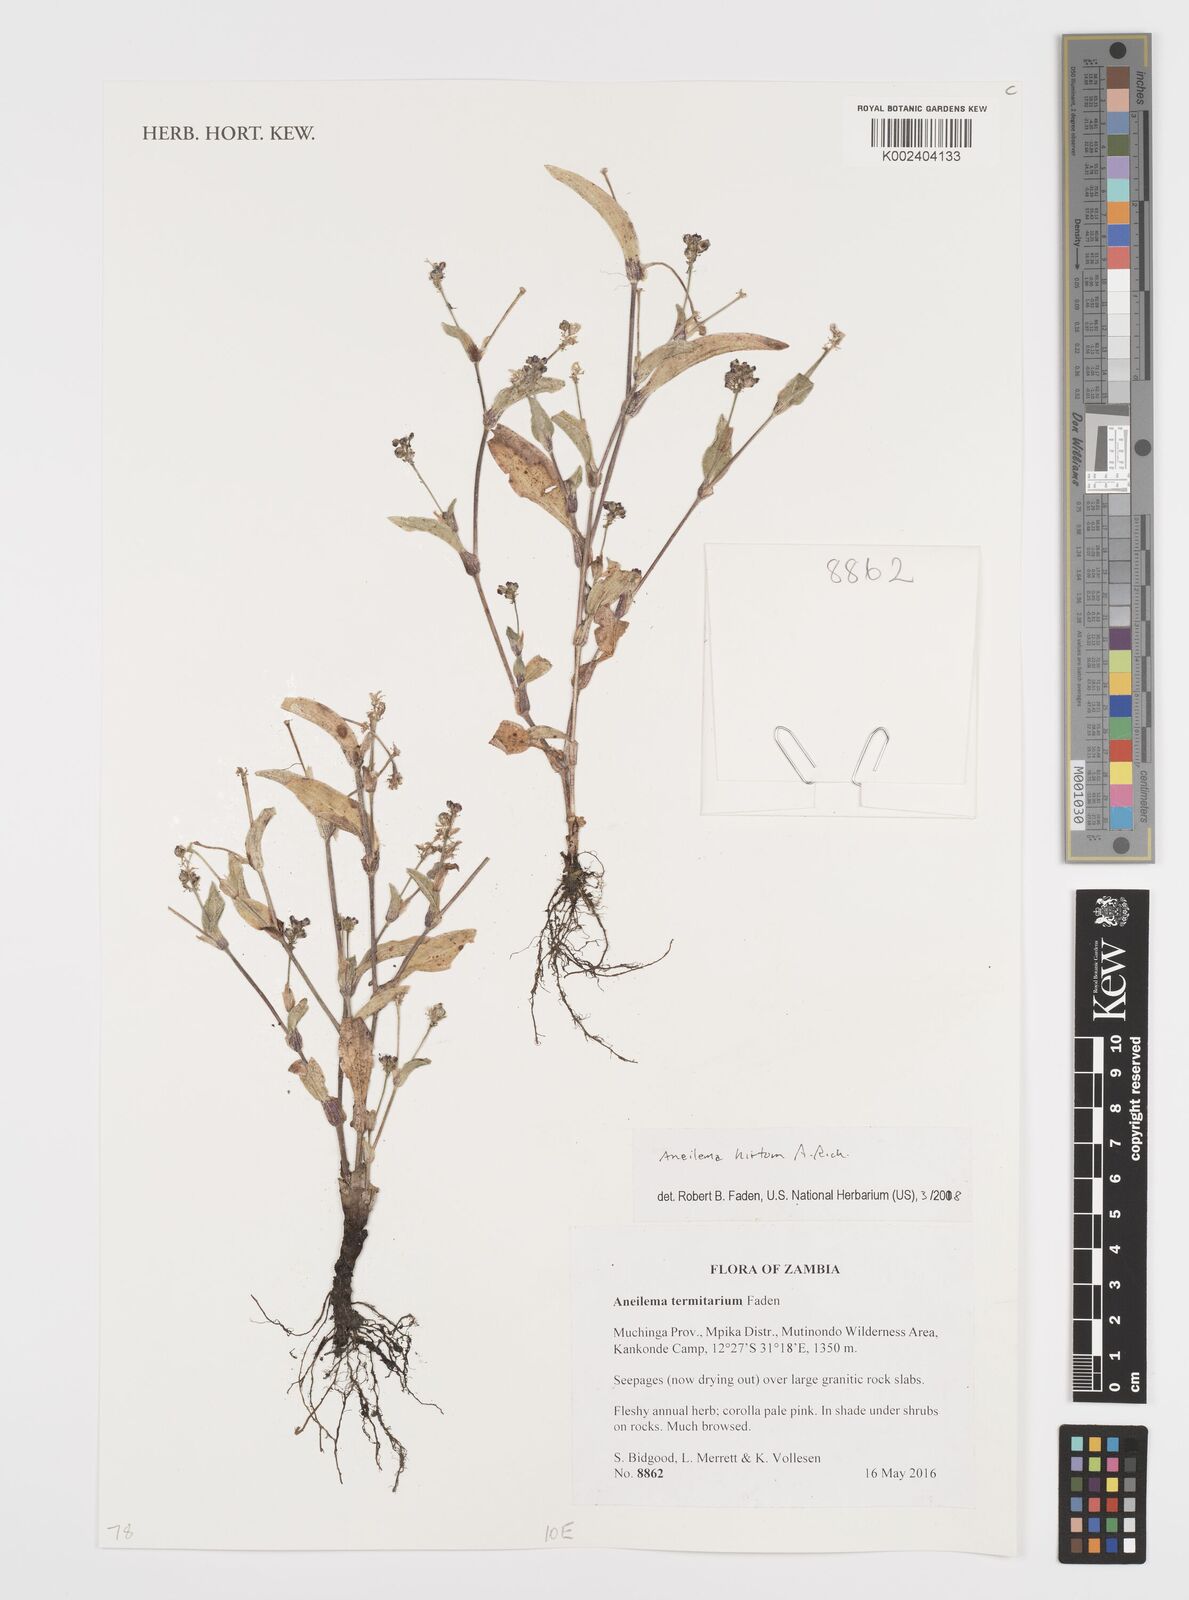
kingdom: Plantae
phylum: Tracheophyta
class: Liliopsida
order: Commelinales
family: Commelinaceae
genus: Aneilema
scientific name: Aneilema hirtum
